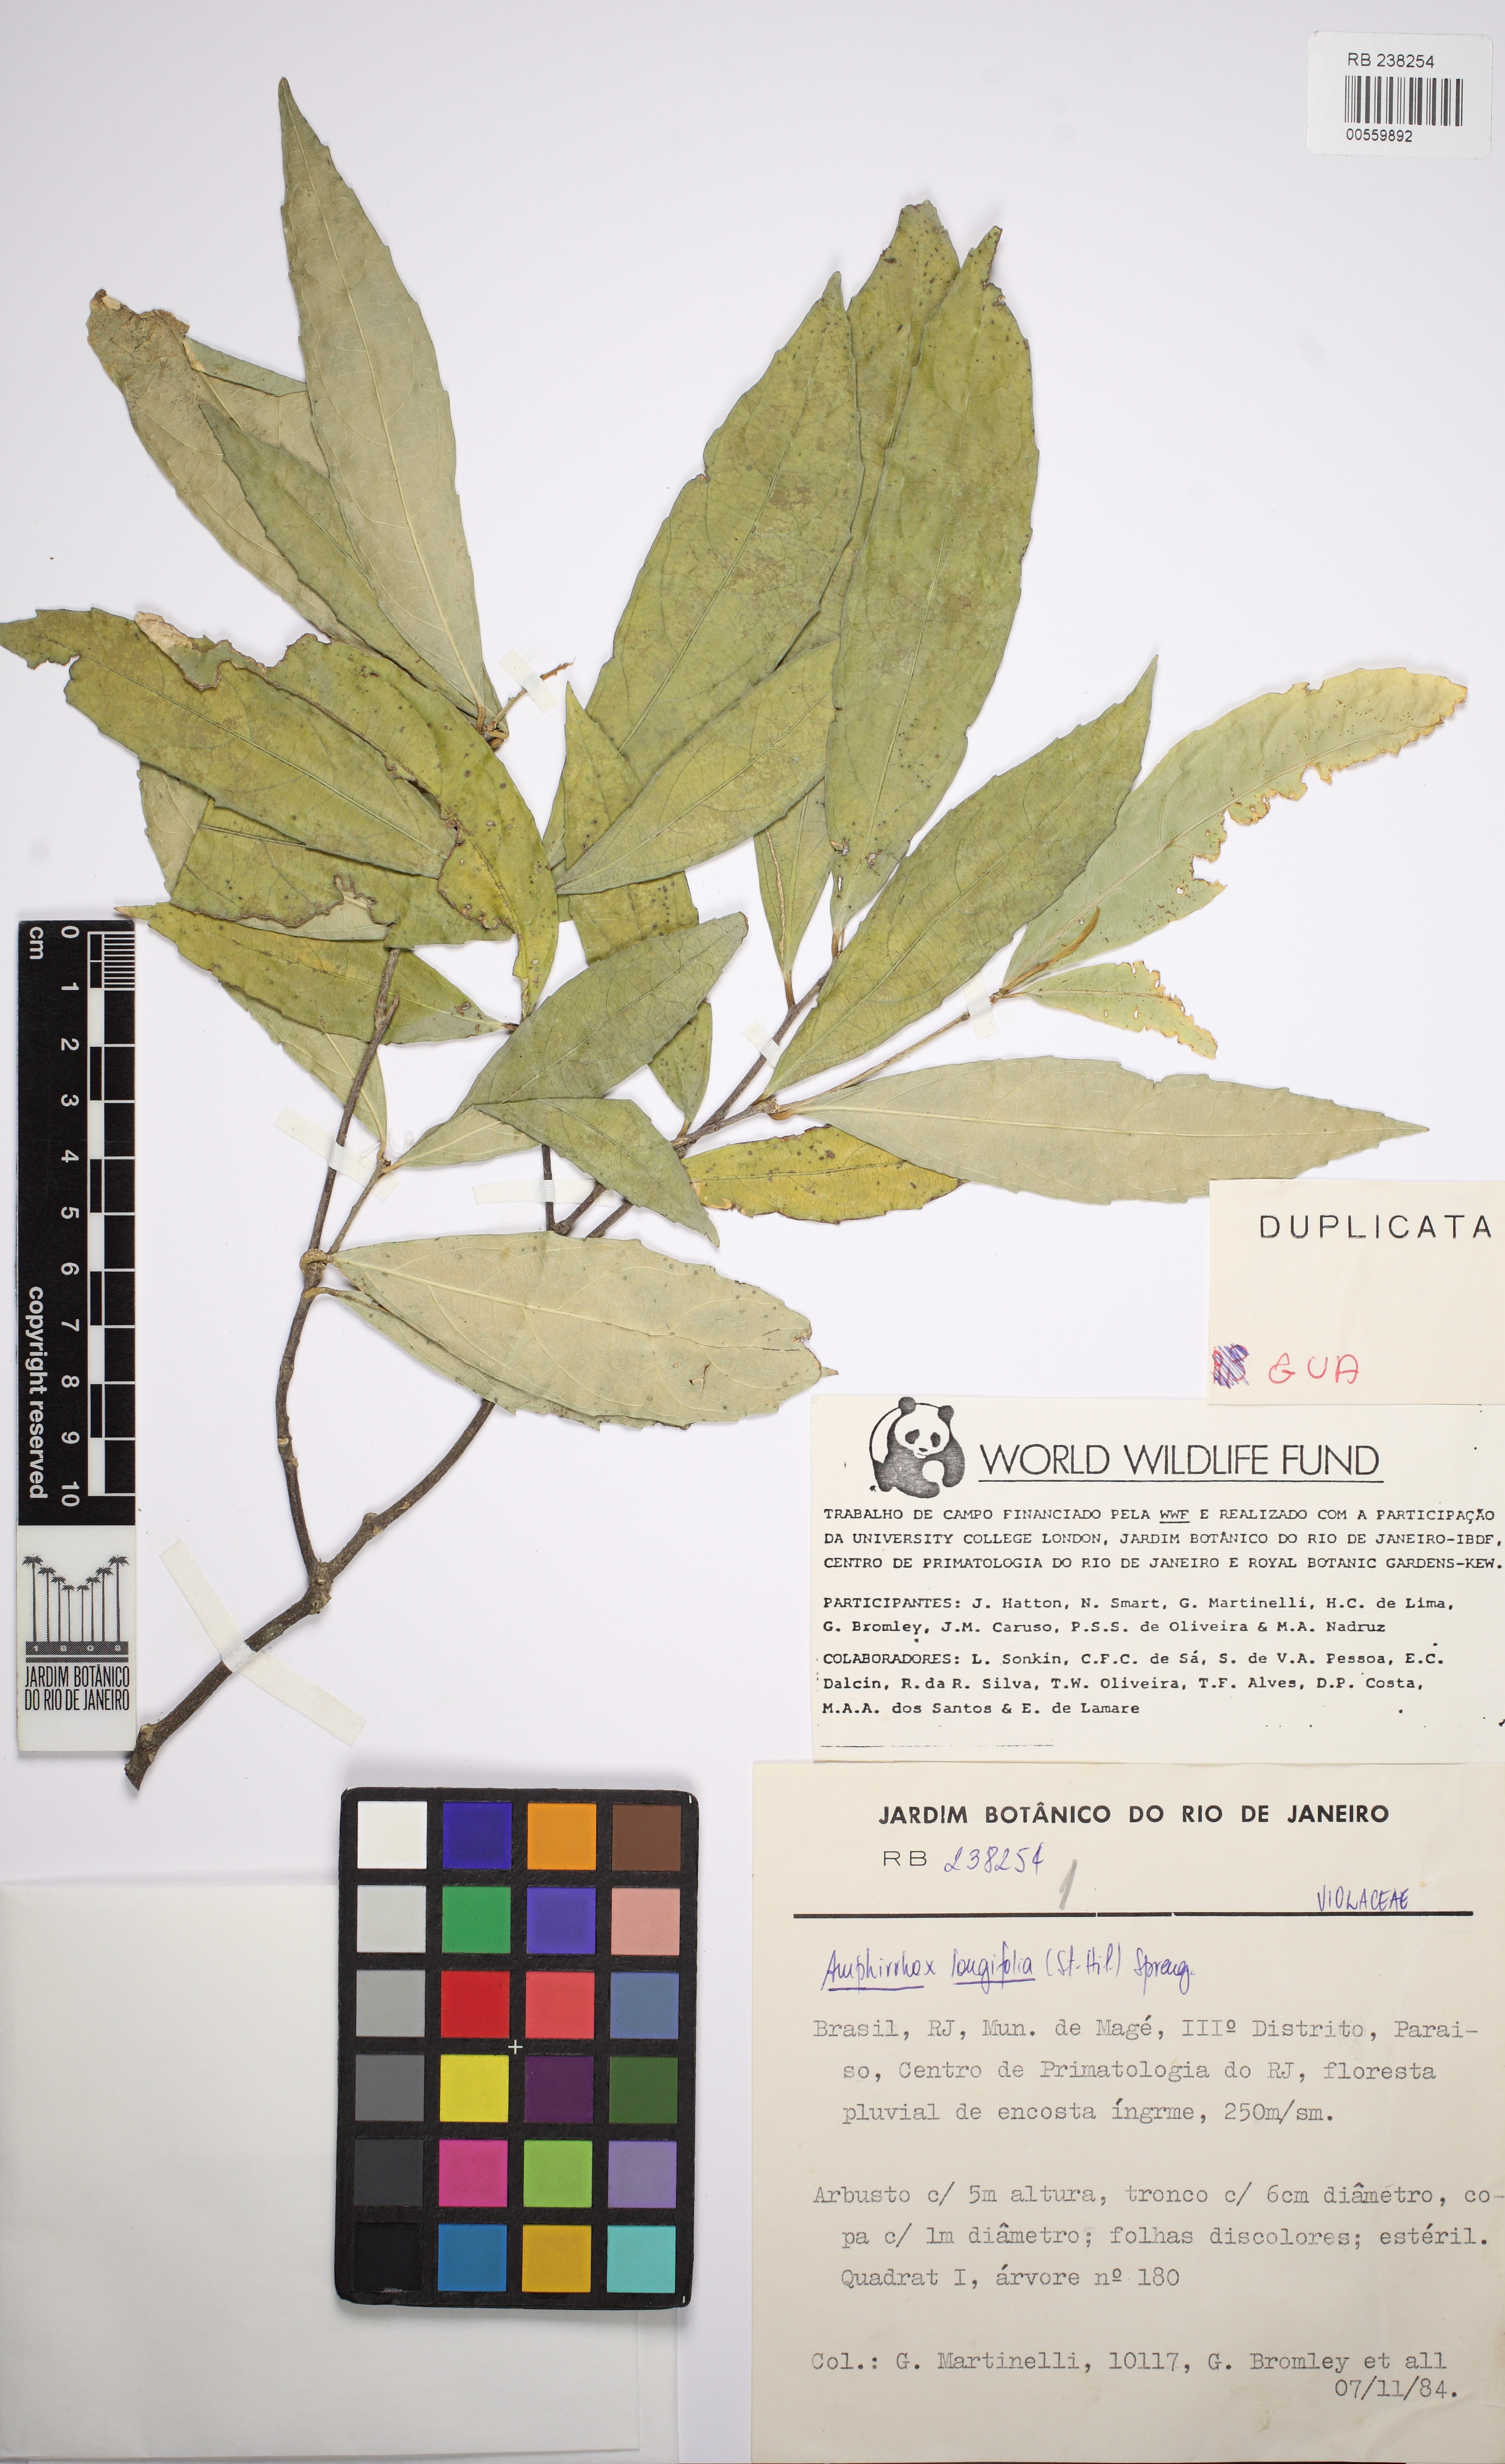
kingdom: Plantae
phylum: Tracheophyta
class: Magnoliopsida
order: Malpighiales
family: Violaceae
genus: Amphirrhox
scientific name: Amphirrhox longifolia
